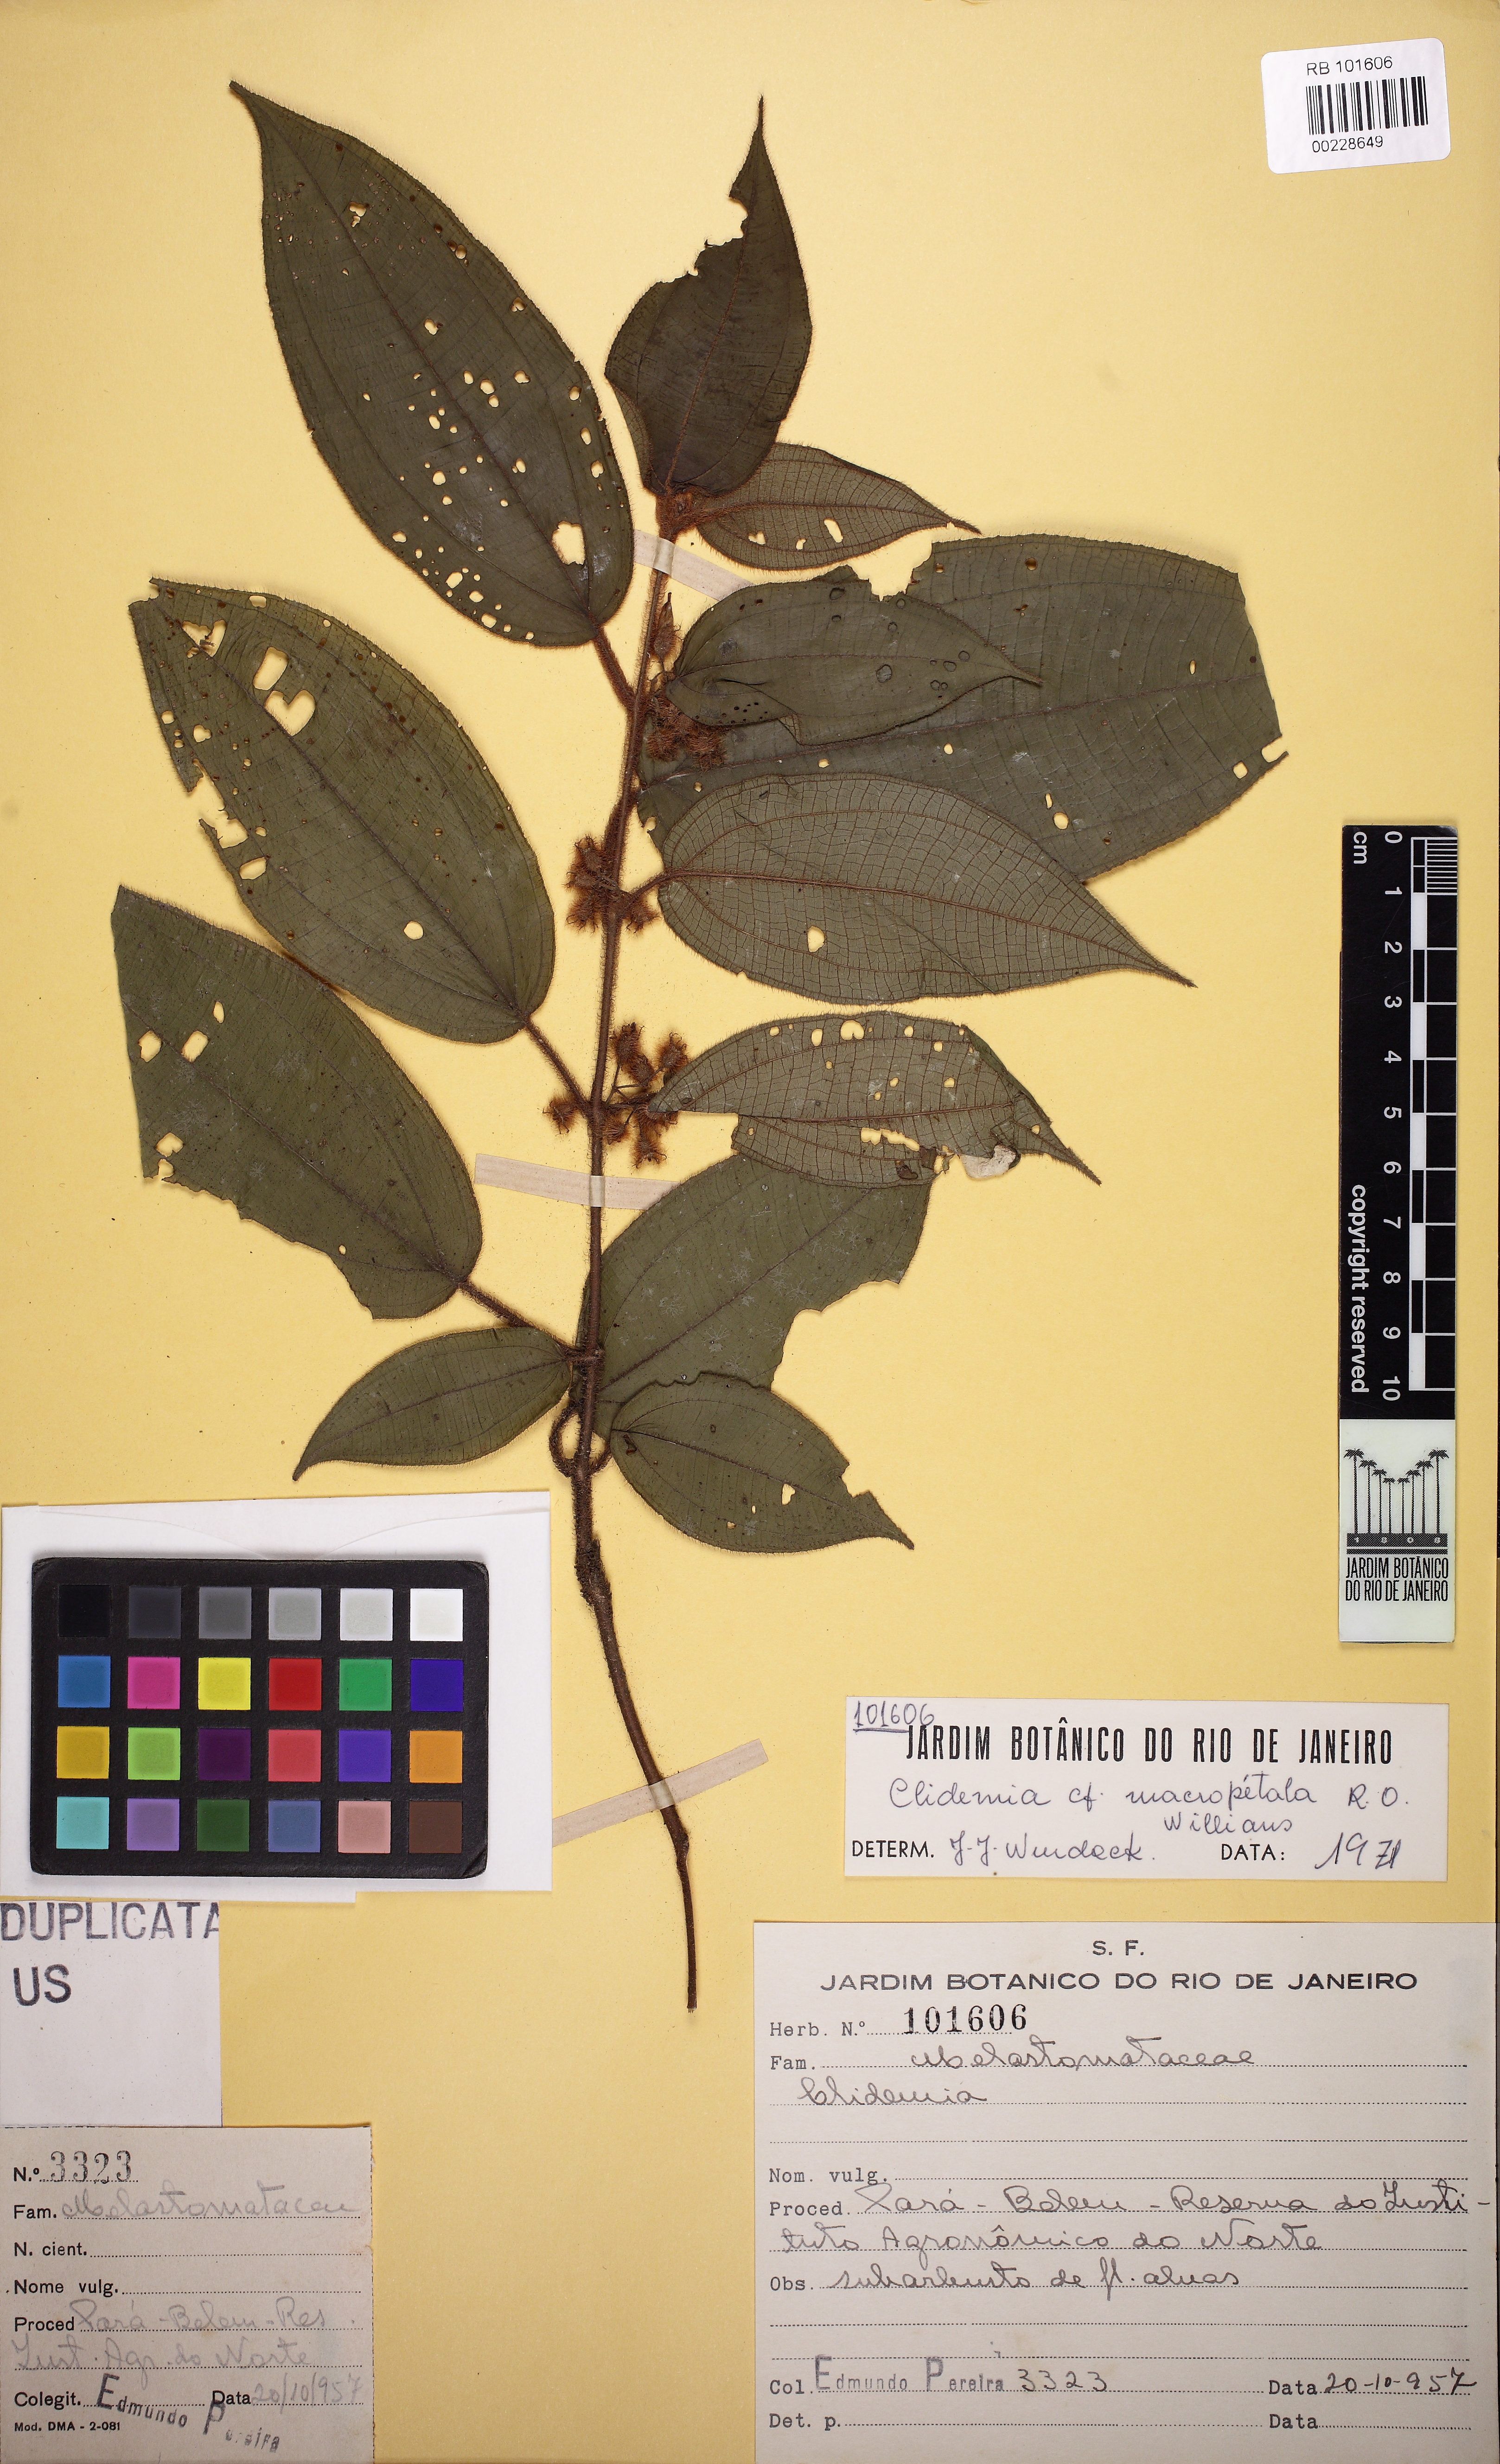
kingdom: Plantae
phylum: Tracheophyta
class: Magnoliopsida
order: Myrtales
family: Melastomataceae
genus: Miconia
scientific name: Miconia macropetala
